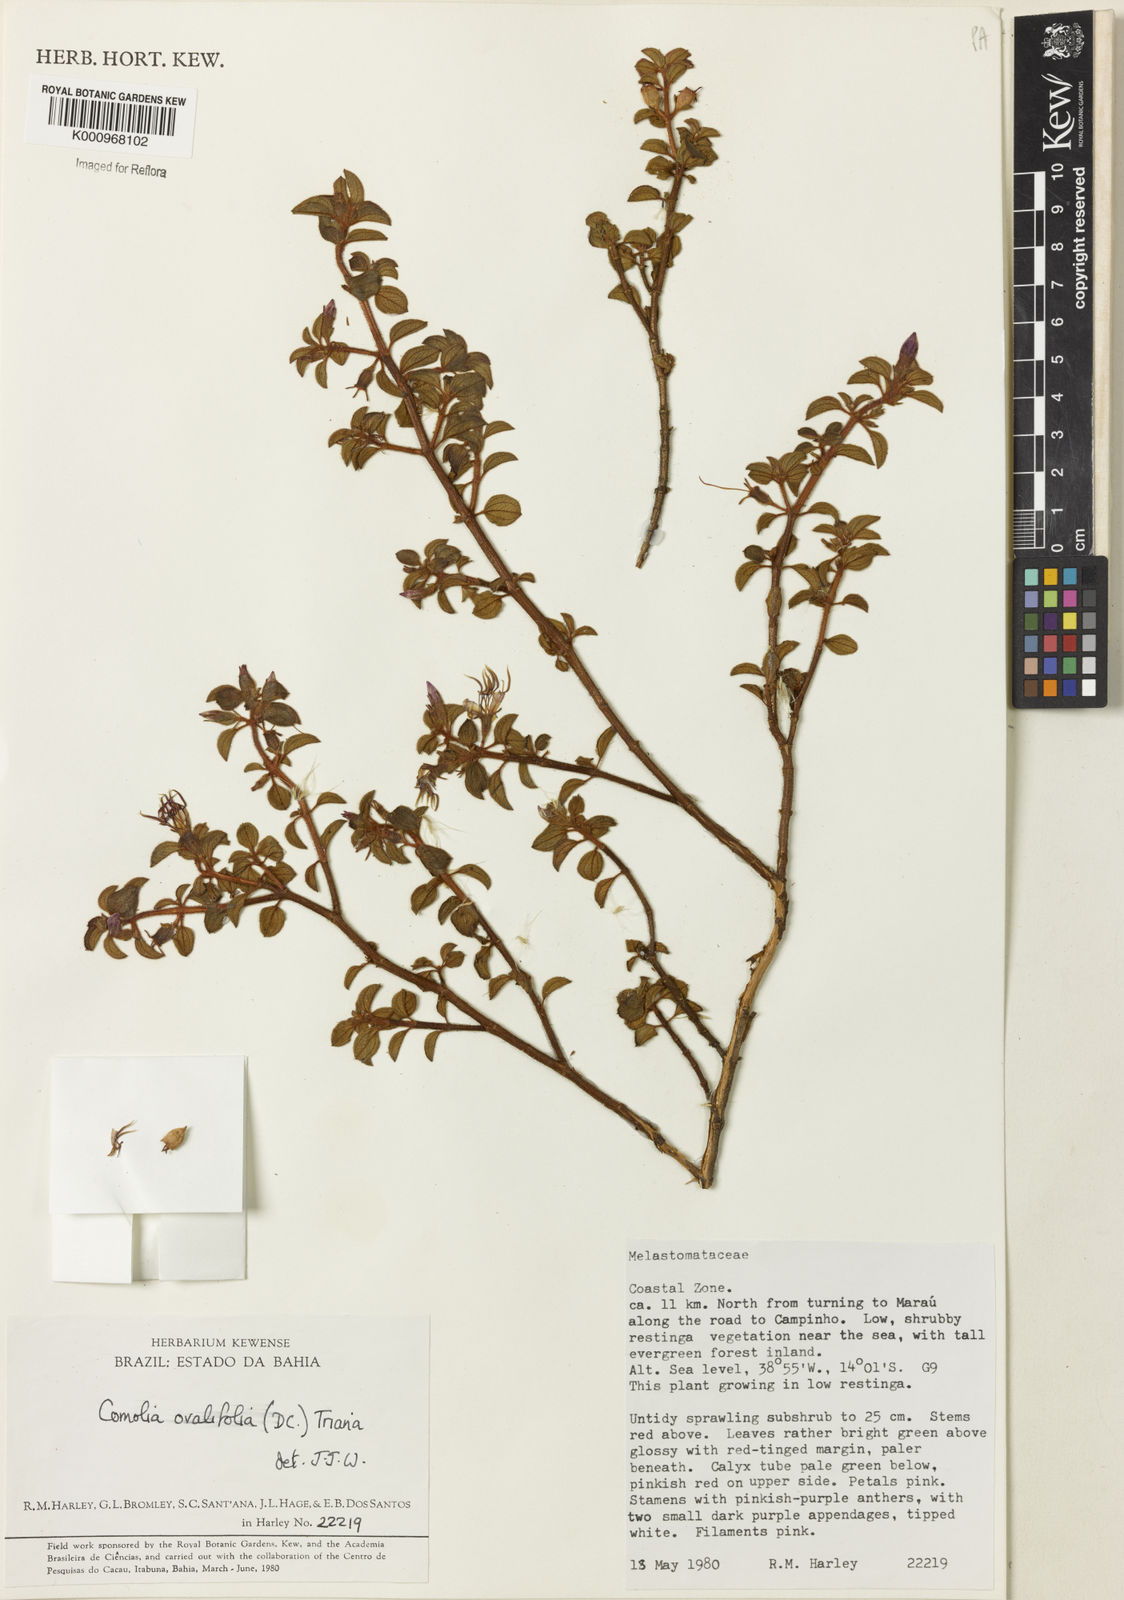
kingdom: Plantae
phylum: Tracheophyta
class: Magnoliopsida
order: Myrtales
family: Melastomataceae
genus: Comolia
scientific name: Comolia ovalifolia
